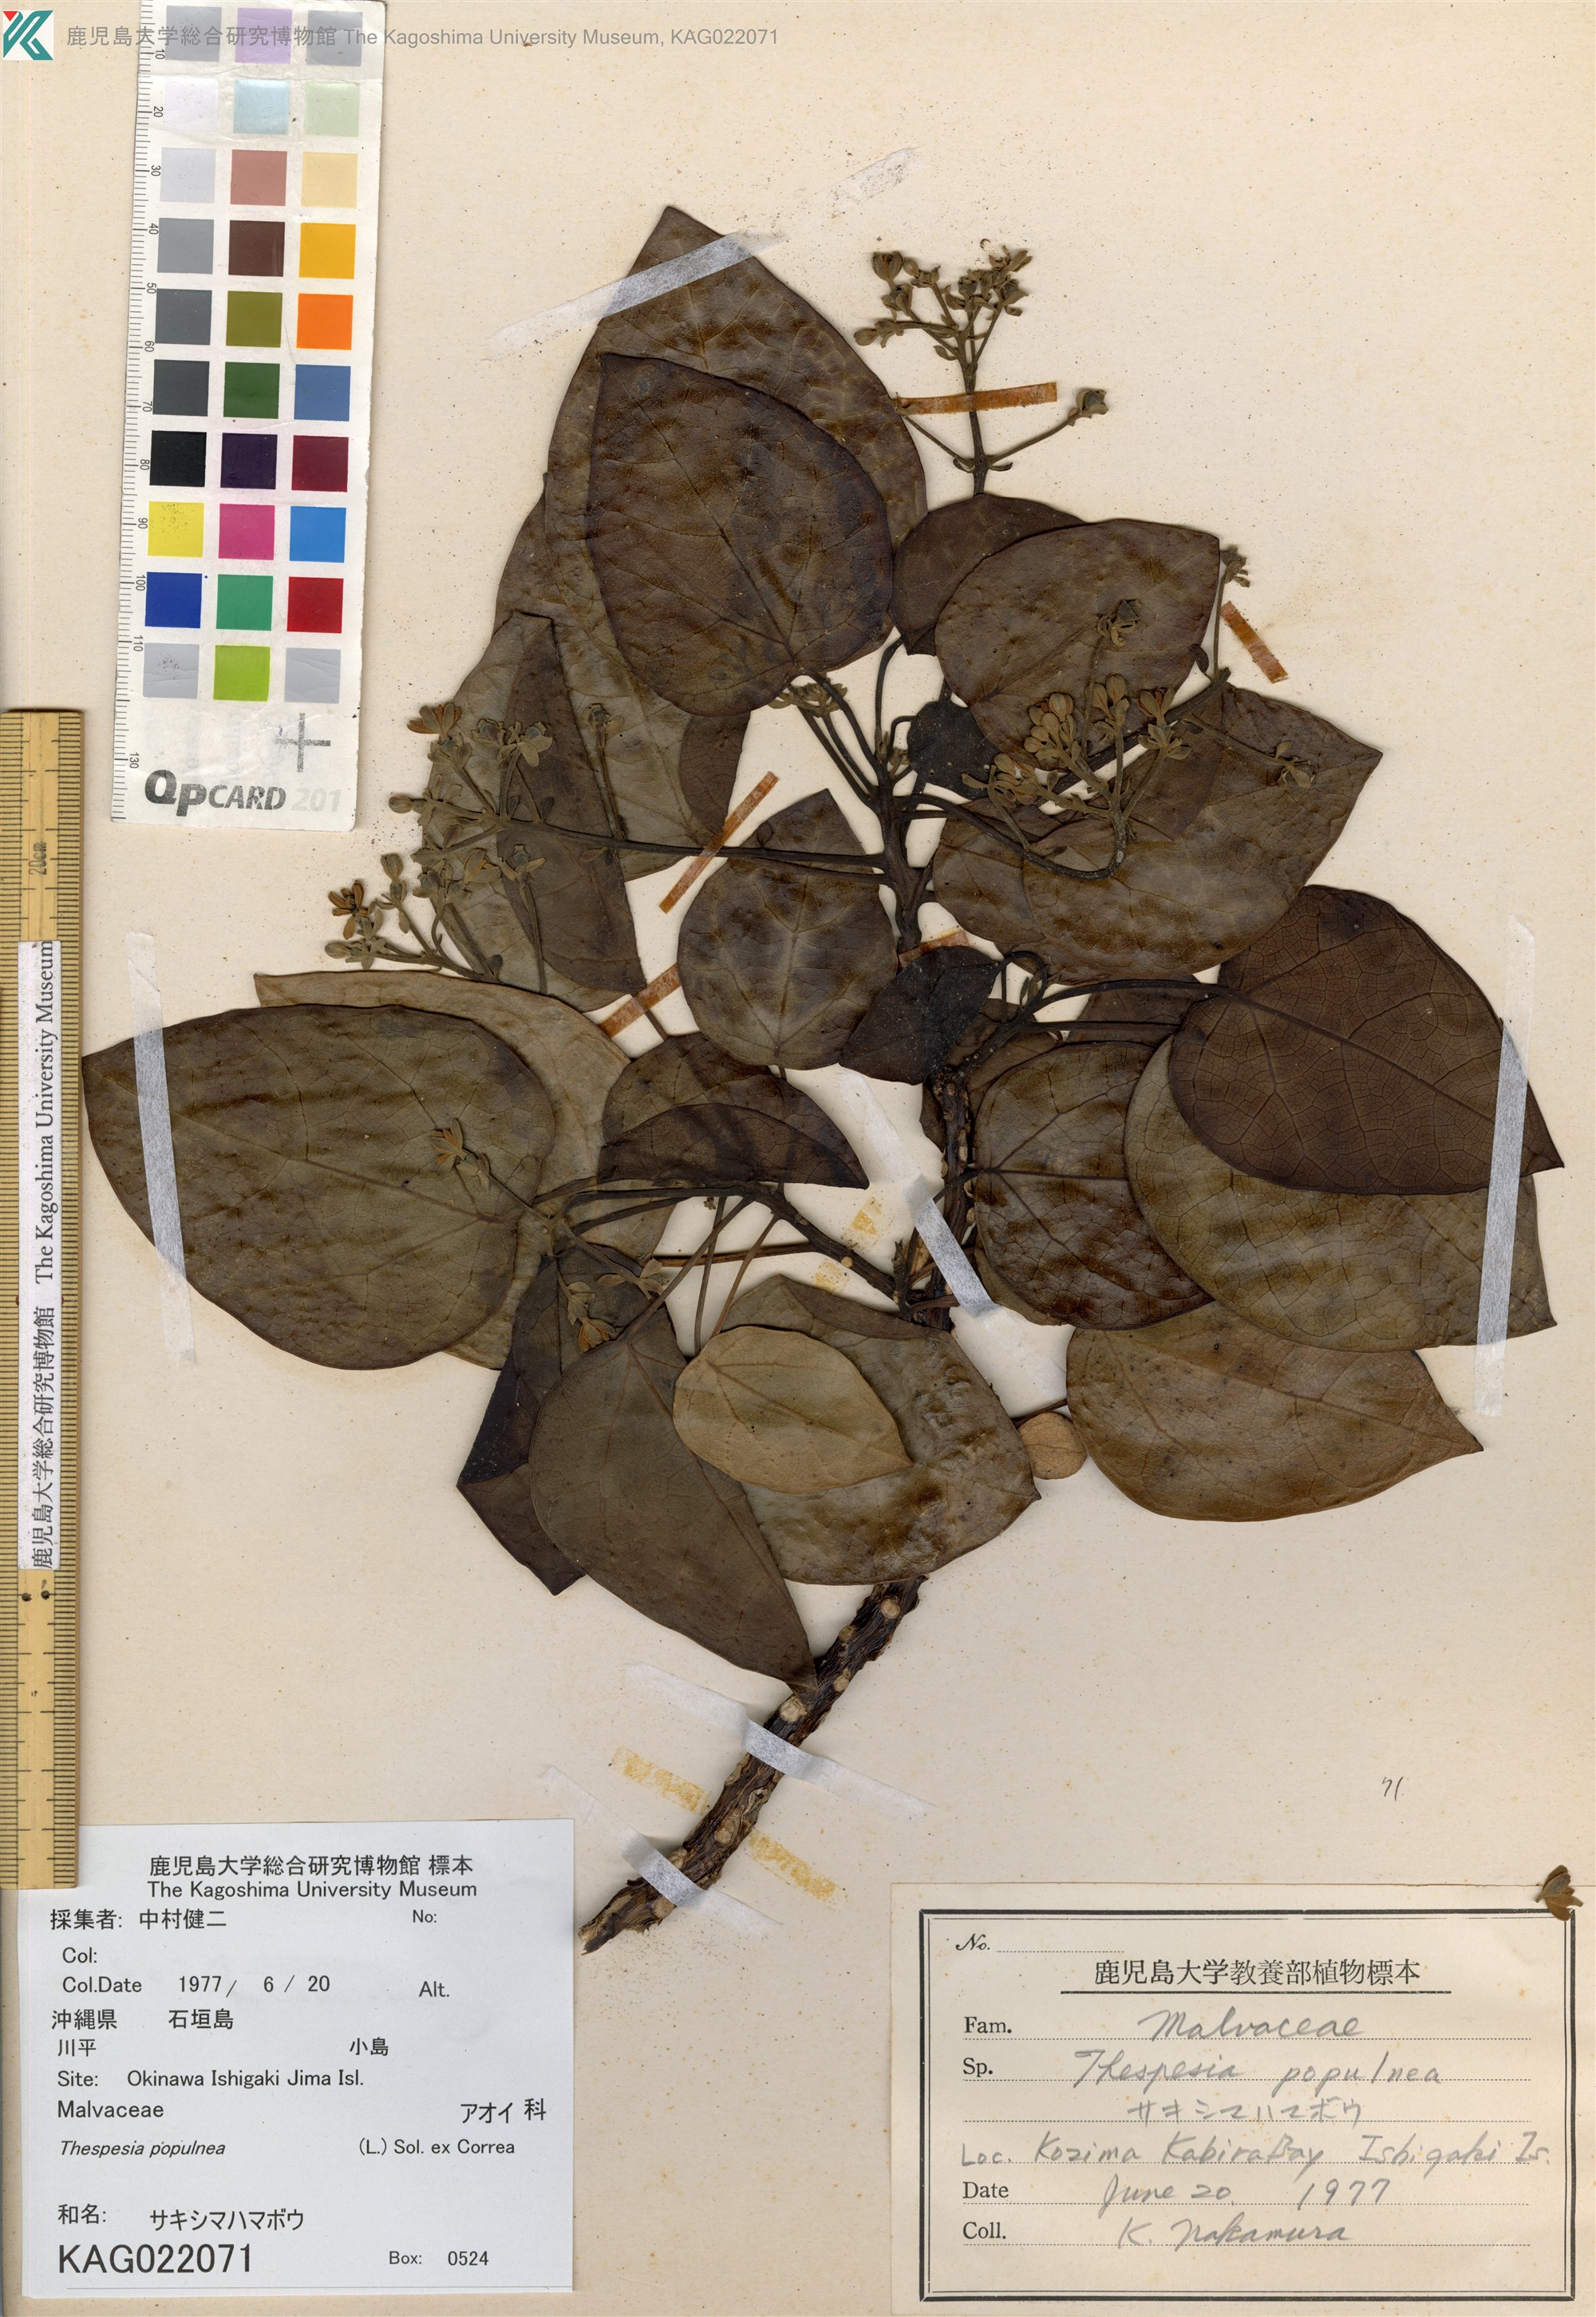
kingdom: Plantae
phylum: Tracheophyta
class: Magnoliopsida
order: Malvales
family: Malvaceae
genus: Thespesia
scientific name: Thespesia populnea
